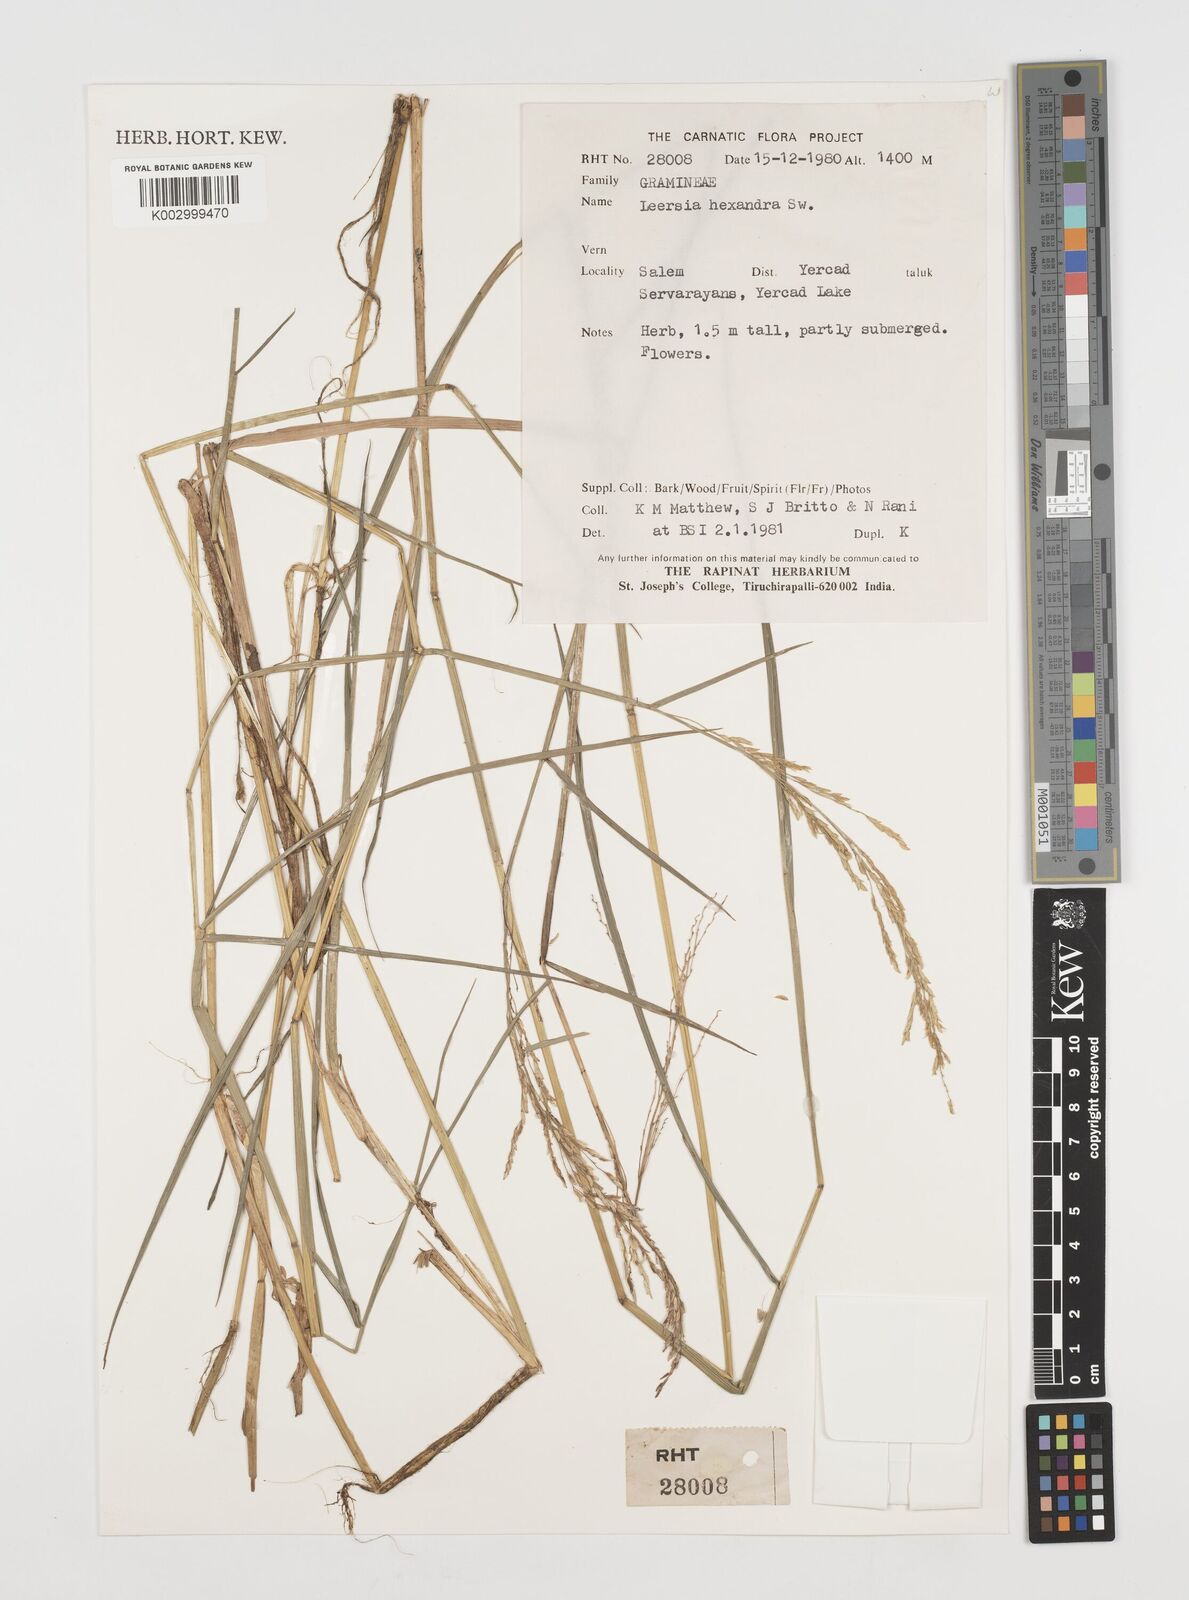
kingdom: Plantae
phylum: Tracheophyta
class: Liliopsida
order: Poales
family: Poaceae
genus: Leersia
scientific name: Leersia hexandra
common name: Southern cut grass
